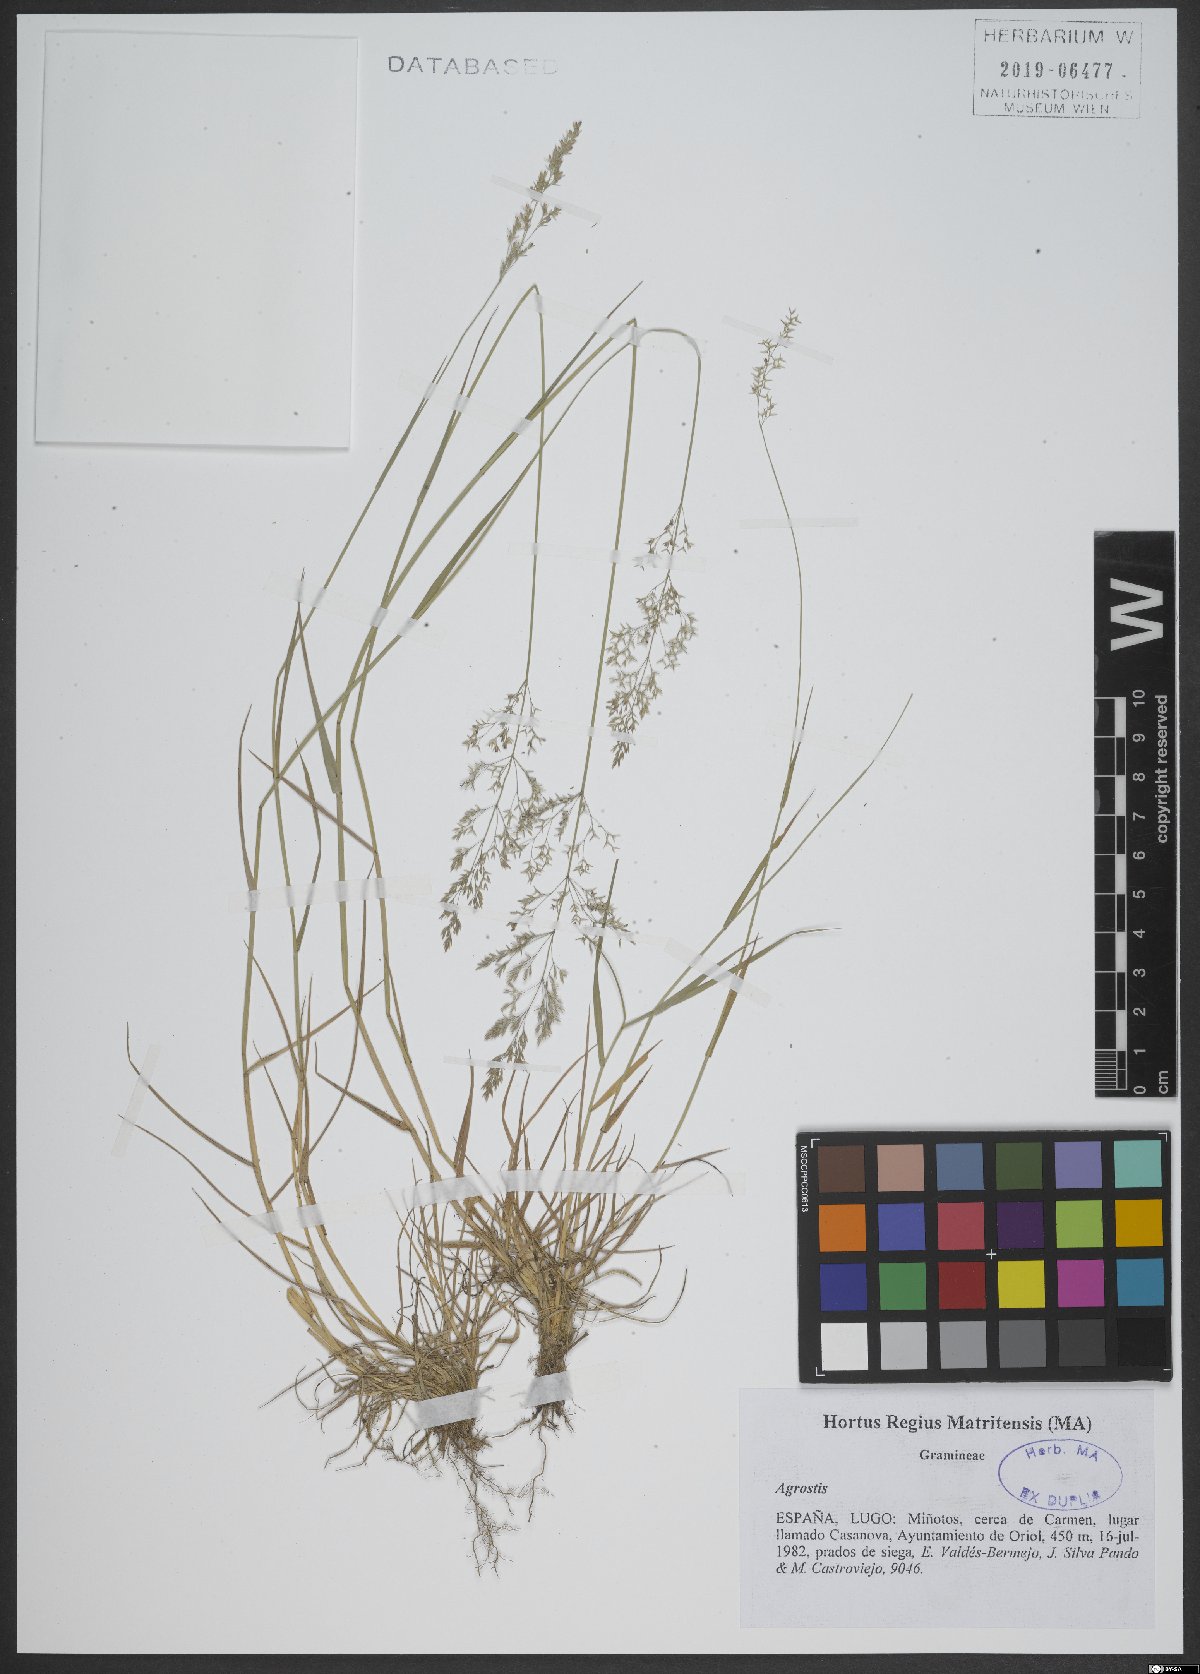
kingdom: Plantae
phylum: Tracheophyta
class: Liliopsida
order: Poales
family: Poaceae
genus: Agrostis
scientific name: Agrostis
